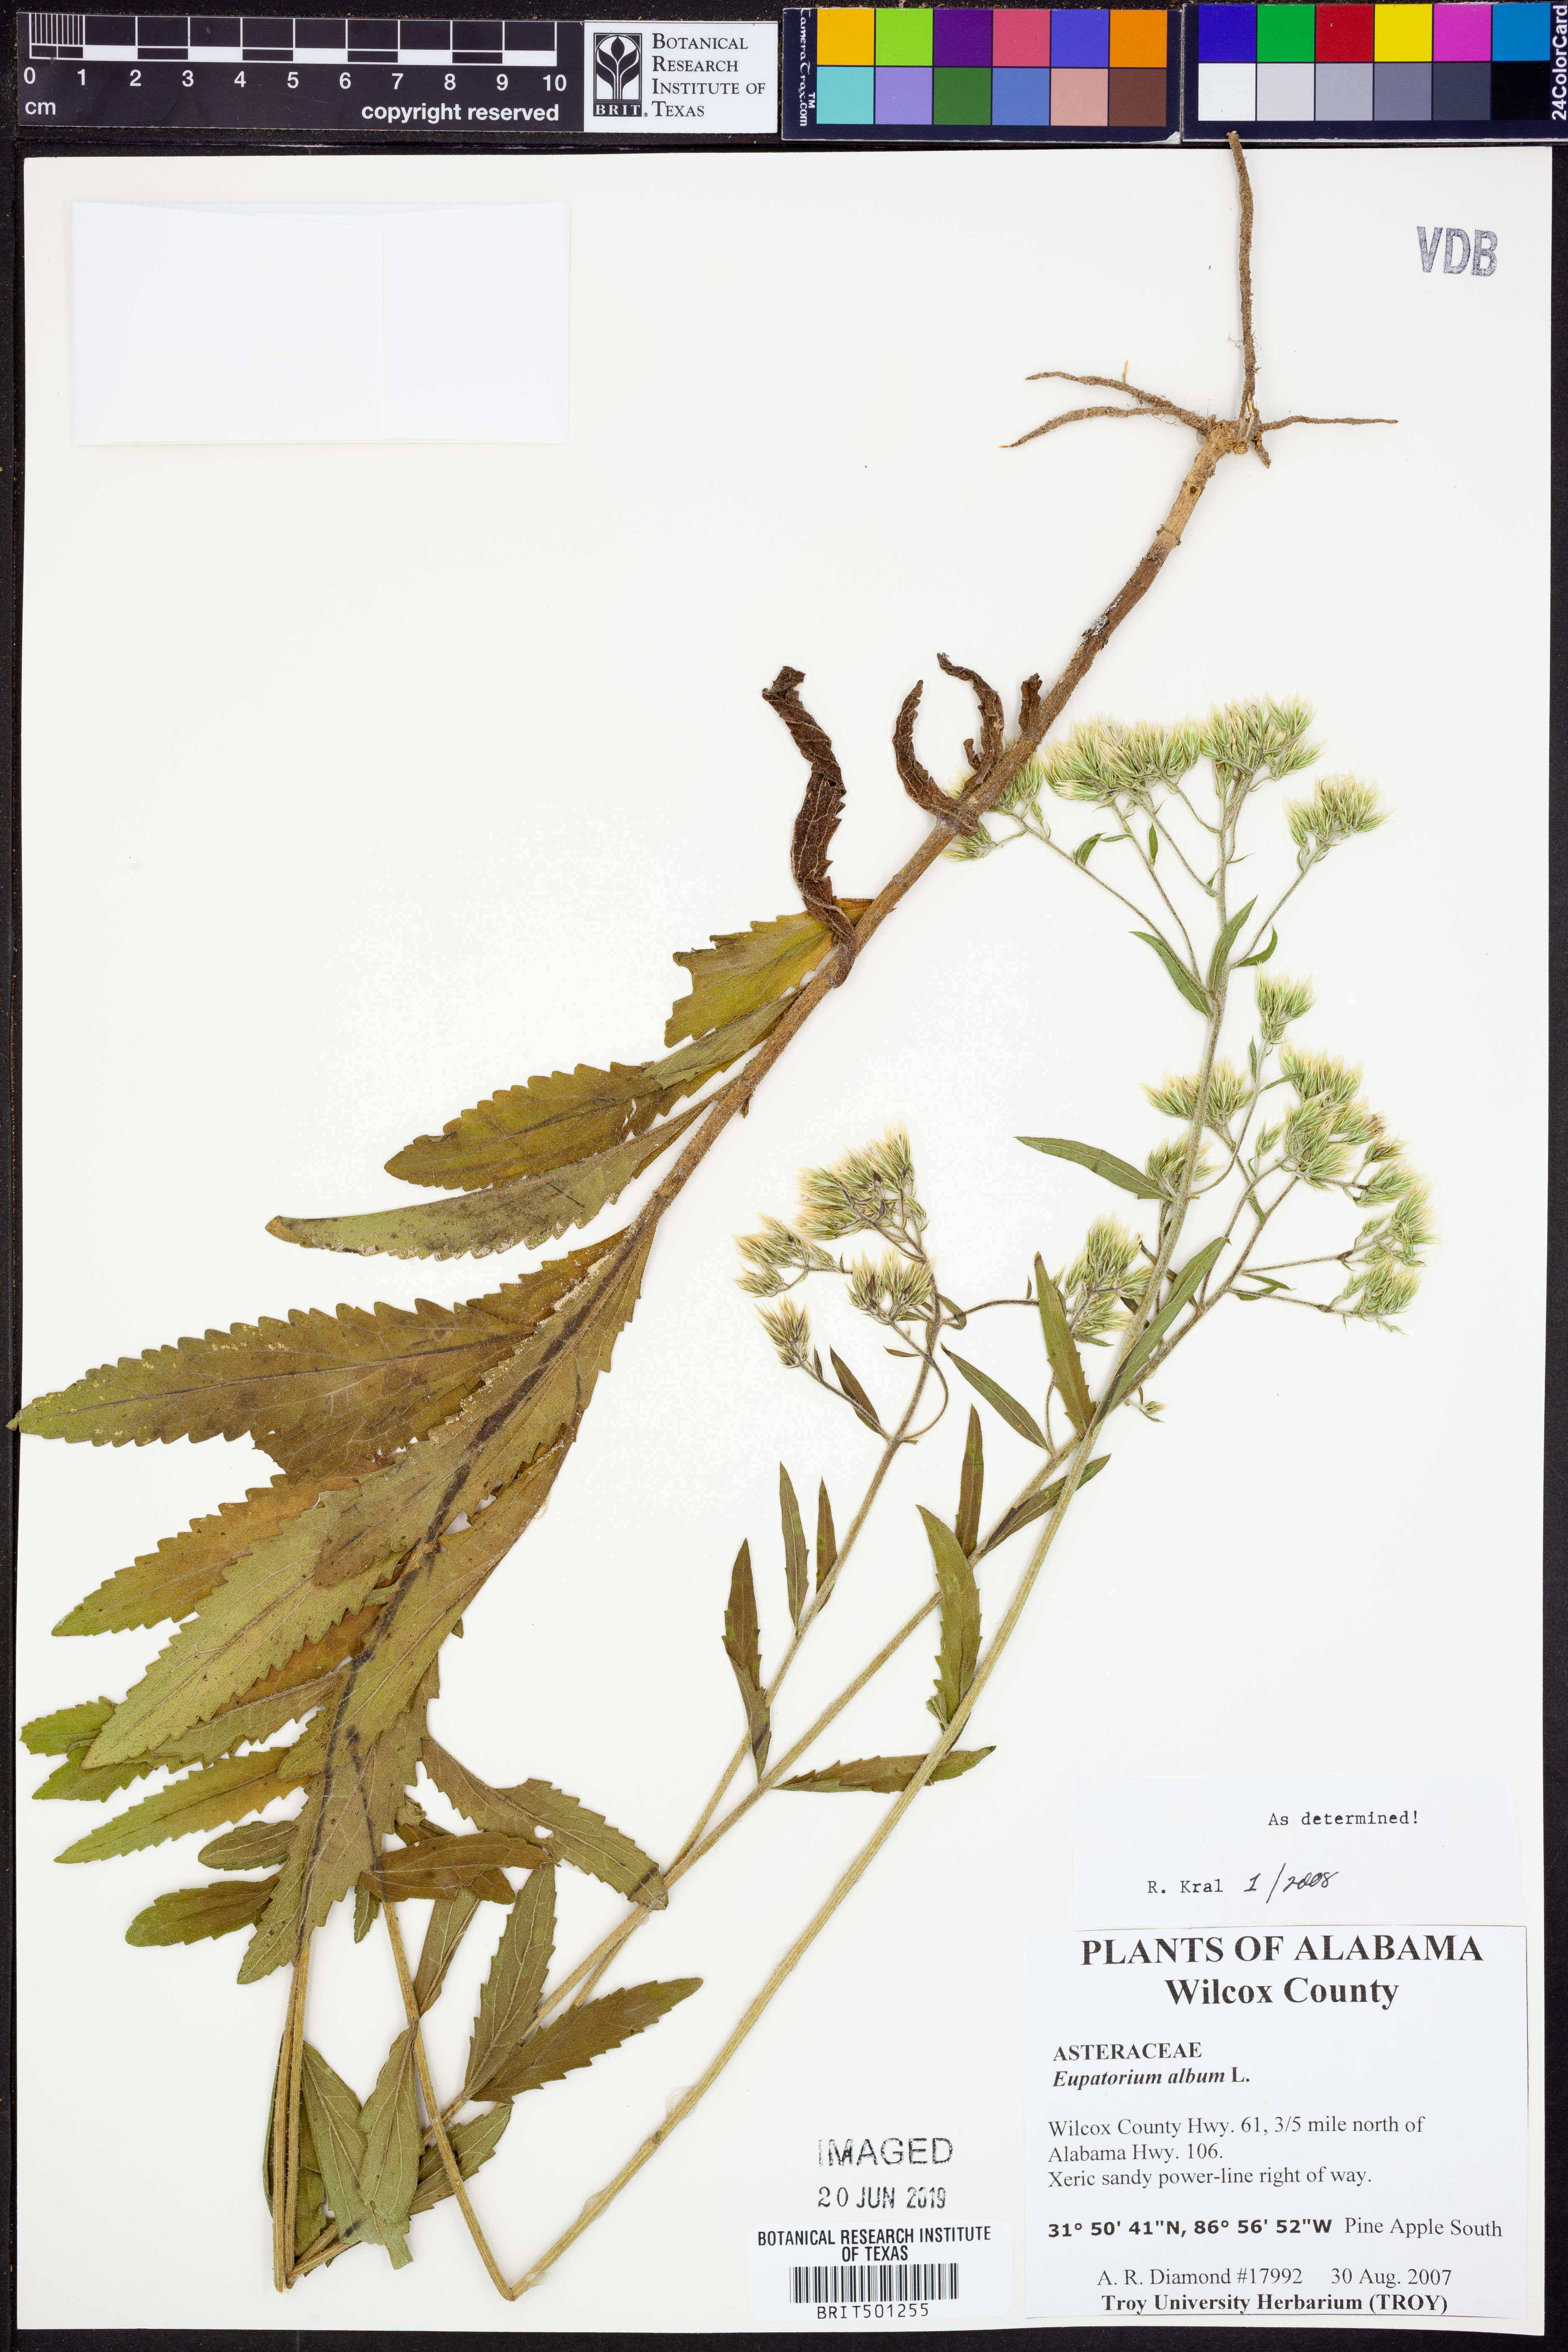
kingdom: Plantae
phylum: Tracheophyta
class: Magnoliopsida
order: Asterales
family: Asteraceae
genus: Eupatorium
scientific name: Eupatorium album
